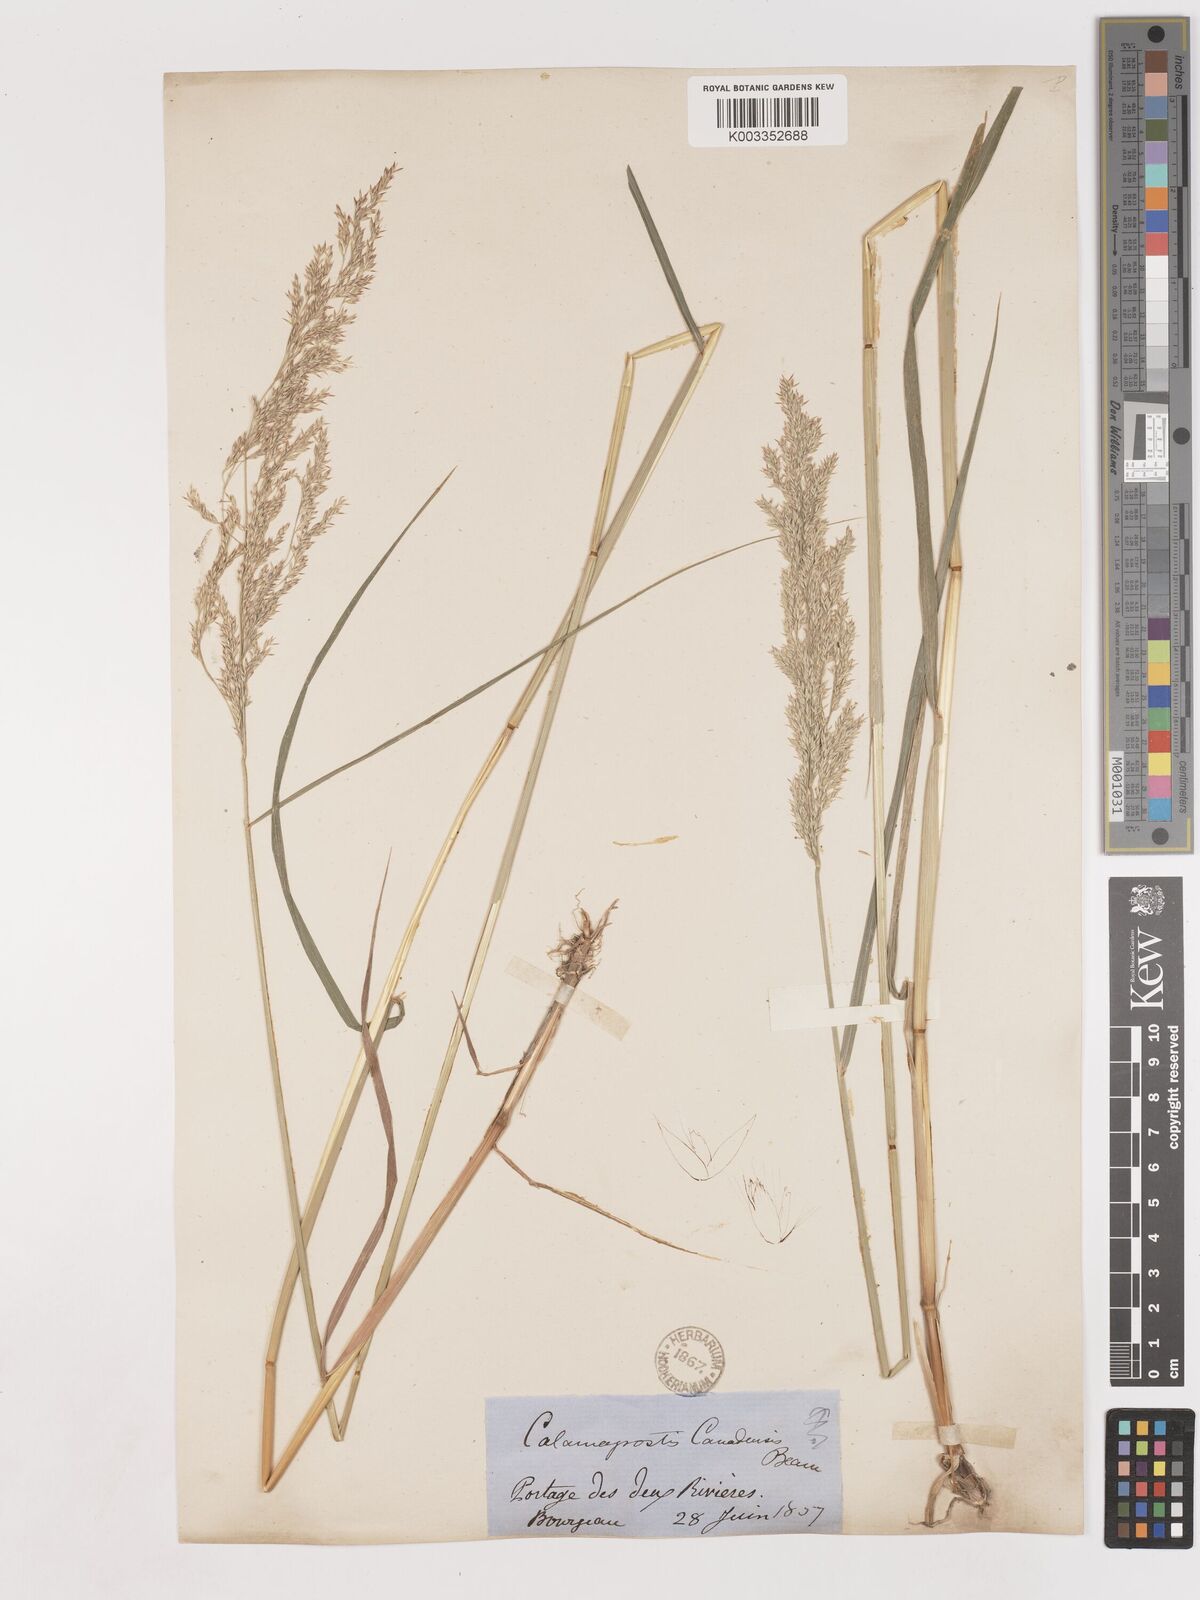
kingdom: Plantae
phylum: Tracheophyta
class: Liliopsida
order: Poales
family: Poaceae
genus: Calamagrostis
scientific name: Calamagrostis canadensis
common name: Canada bluejoint
